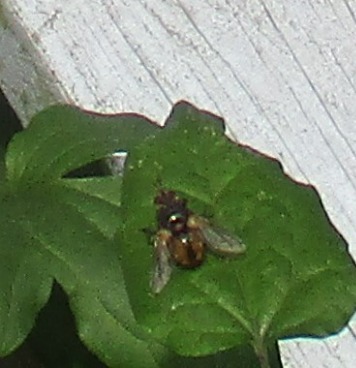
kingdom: Animalia
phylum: Arthropoda
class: Insecta
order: Diptera
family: Tachinidae
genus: Tachina
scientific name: Tachina fera
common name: Mellemfluen oskar
